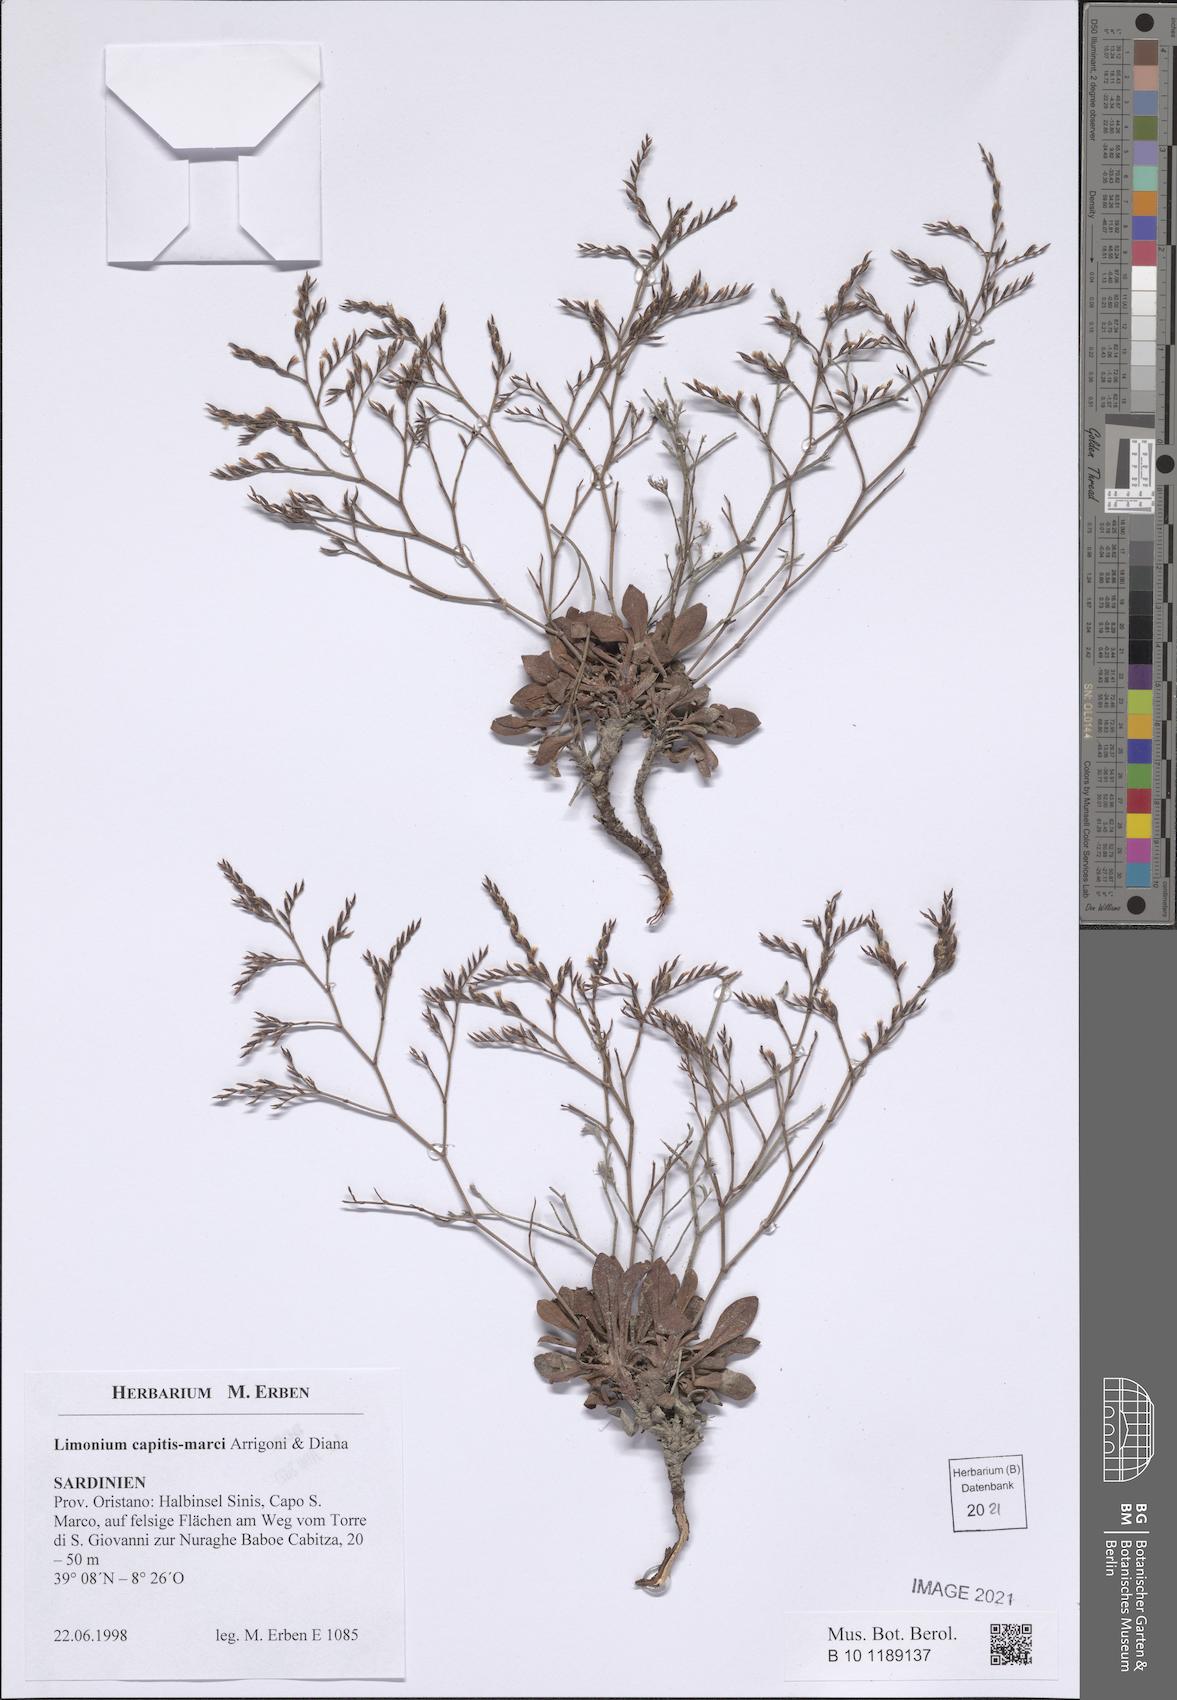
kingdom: Plantae
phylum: Tracheophyta
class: Magnoliopsida
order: Caryophyllales
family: Plumbaginaceae
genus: Limonium
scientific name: Limonium capitis-marci
